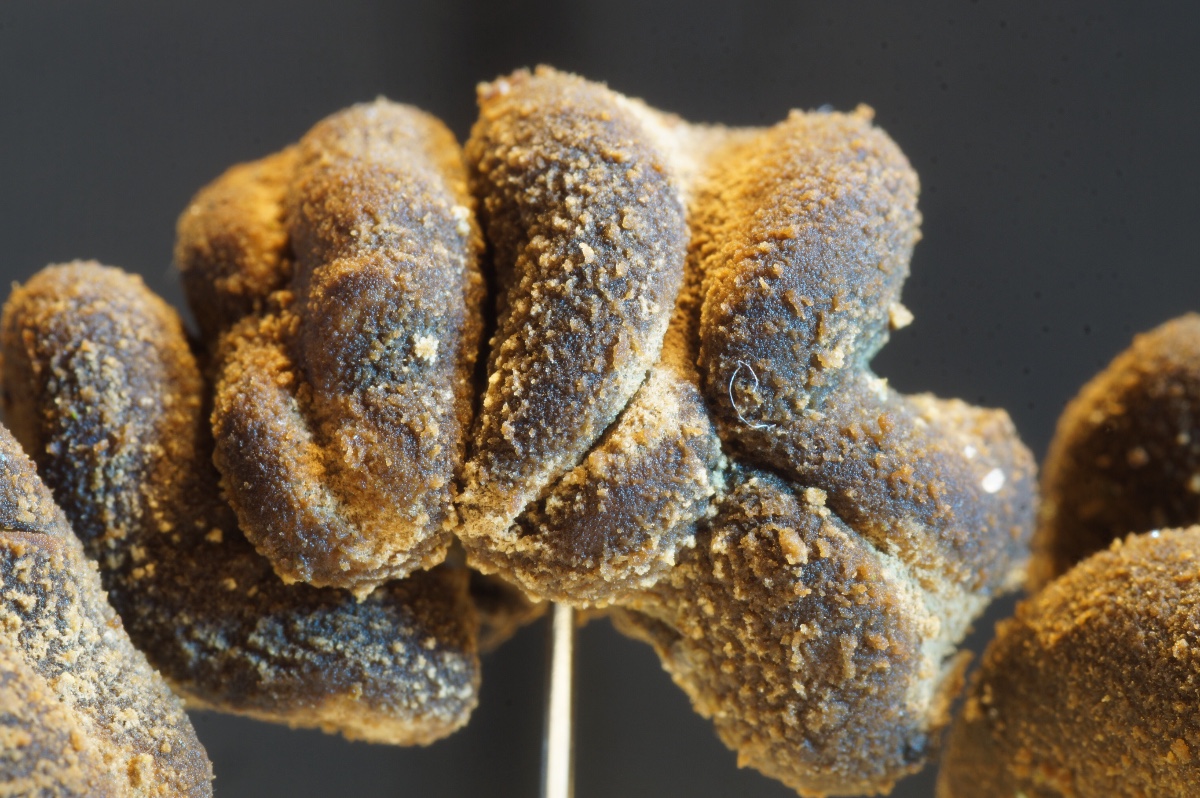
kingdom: Fungi
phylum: Ascomycota
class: Leotiomycetes
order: Helotiales
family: Cenangiaceae
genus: Encoelia
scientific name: Encoelia furfuracea
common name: hassel-læderskive
